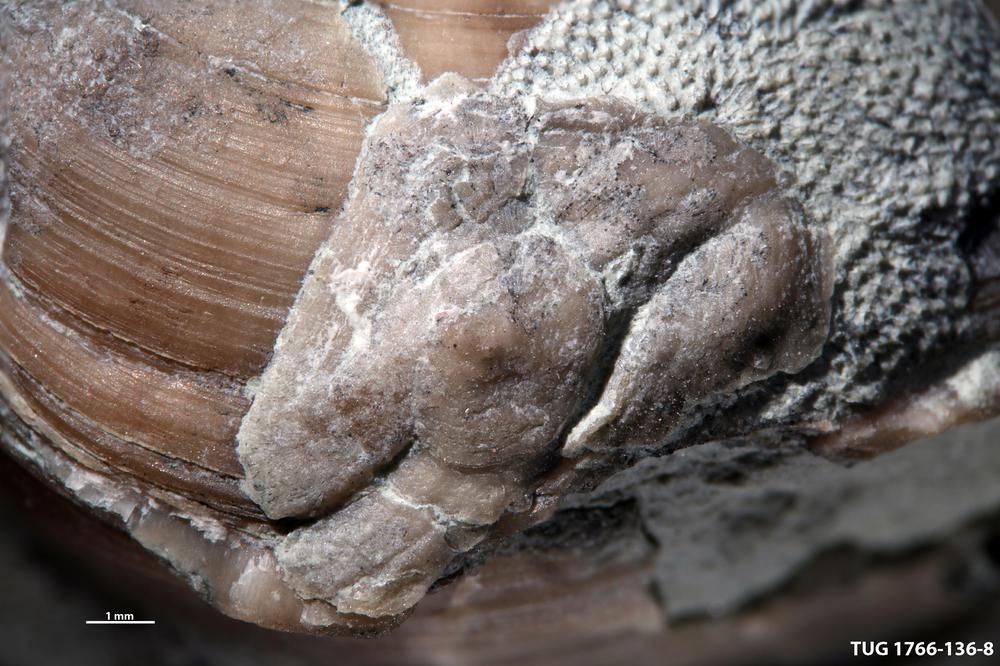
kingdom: Animalia
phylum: Brachiopoda
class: Craniata
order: Craniida
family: Craniidae
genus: Petrocrania
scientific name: Petrocrania
